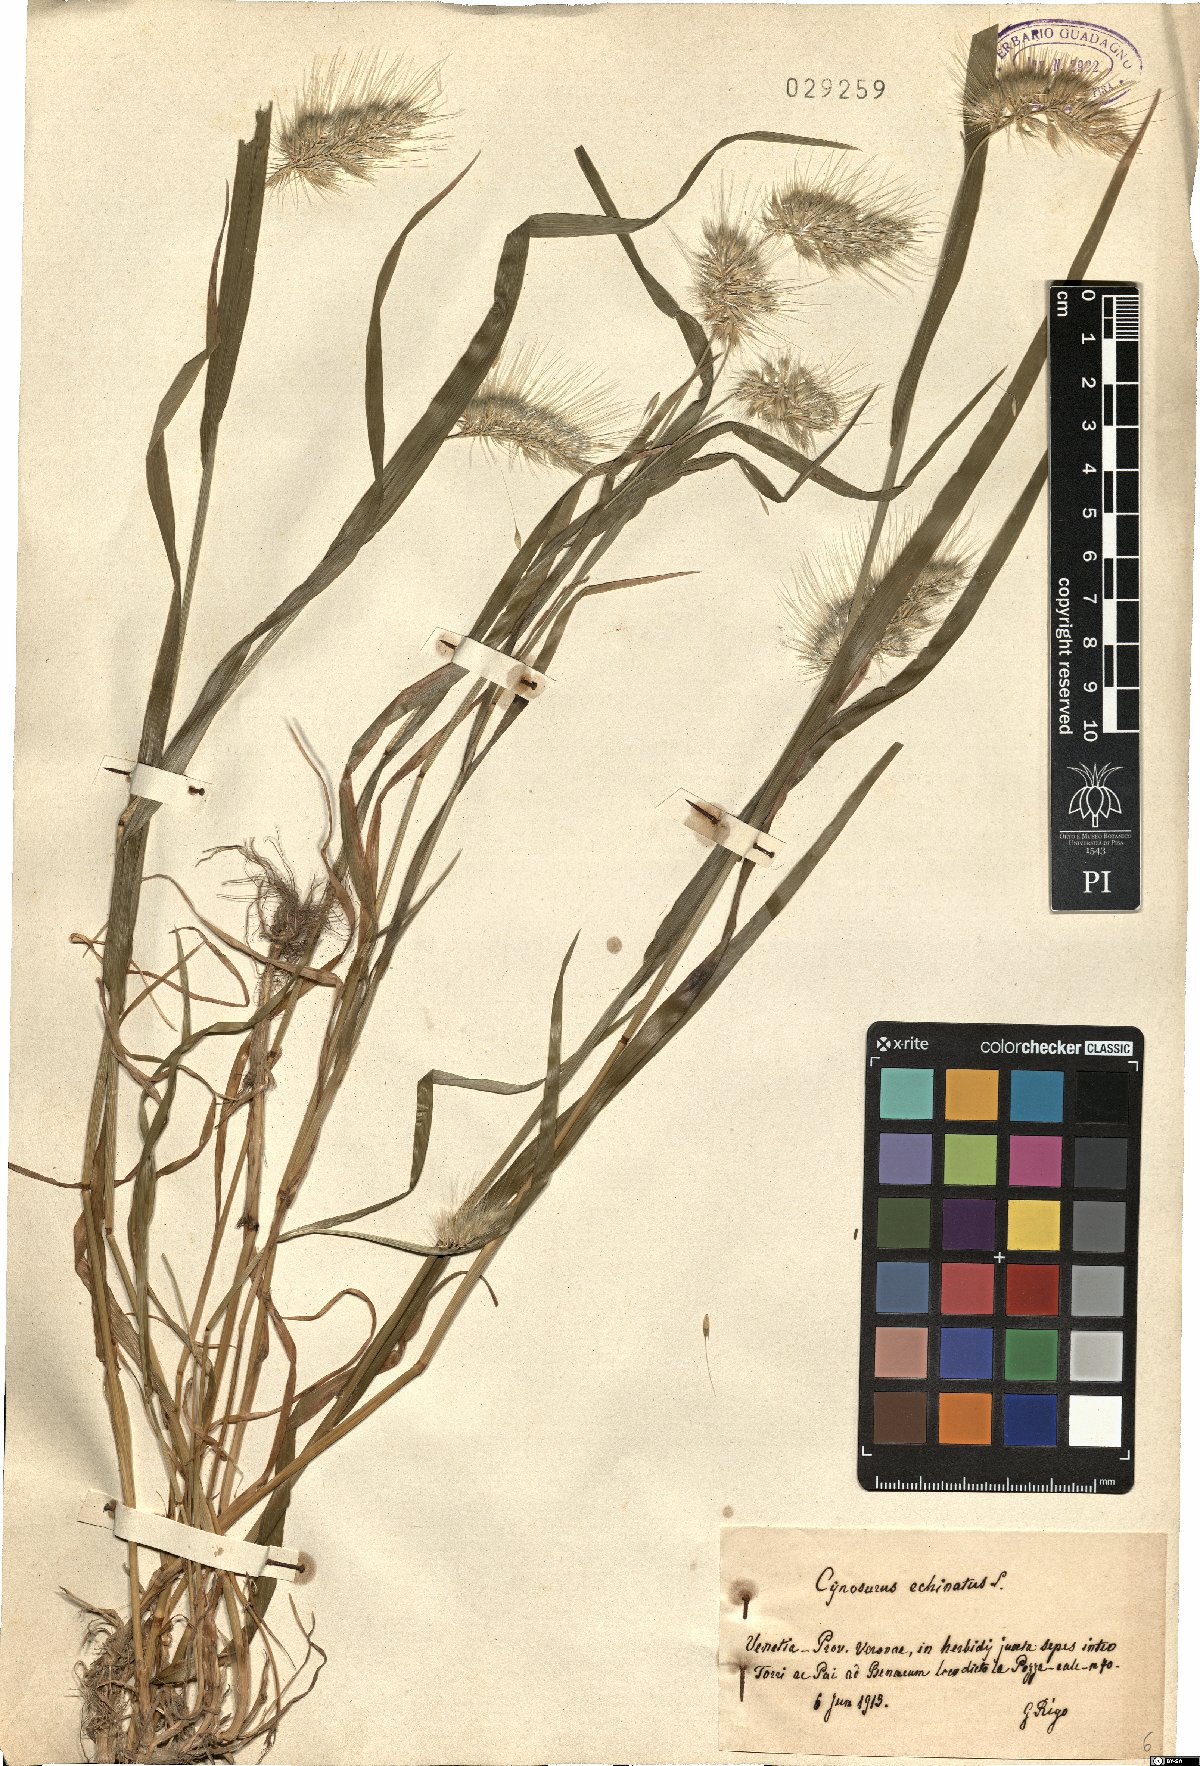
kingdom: Plantae
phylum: Tracheophyta
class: Liliopsida
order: Poales
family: Poaceae
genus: Cynosurus
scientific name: Cynosurus echinatus
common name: Rough dog's-tail
